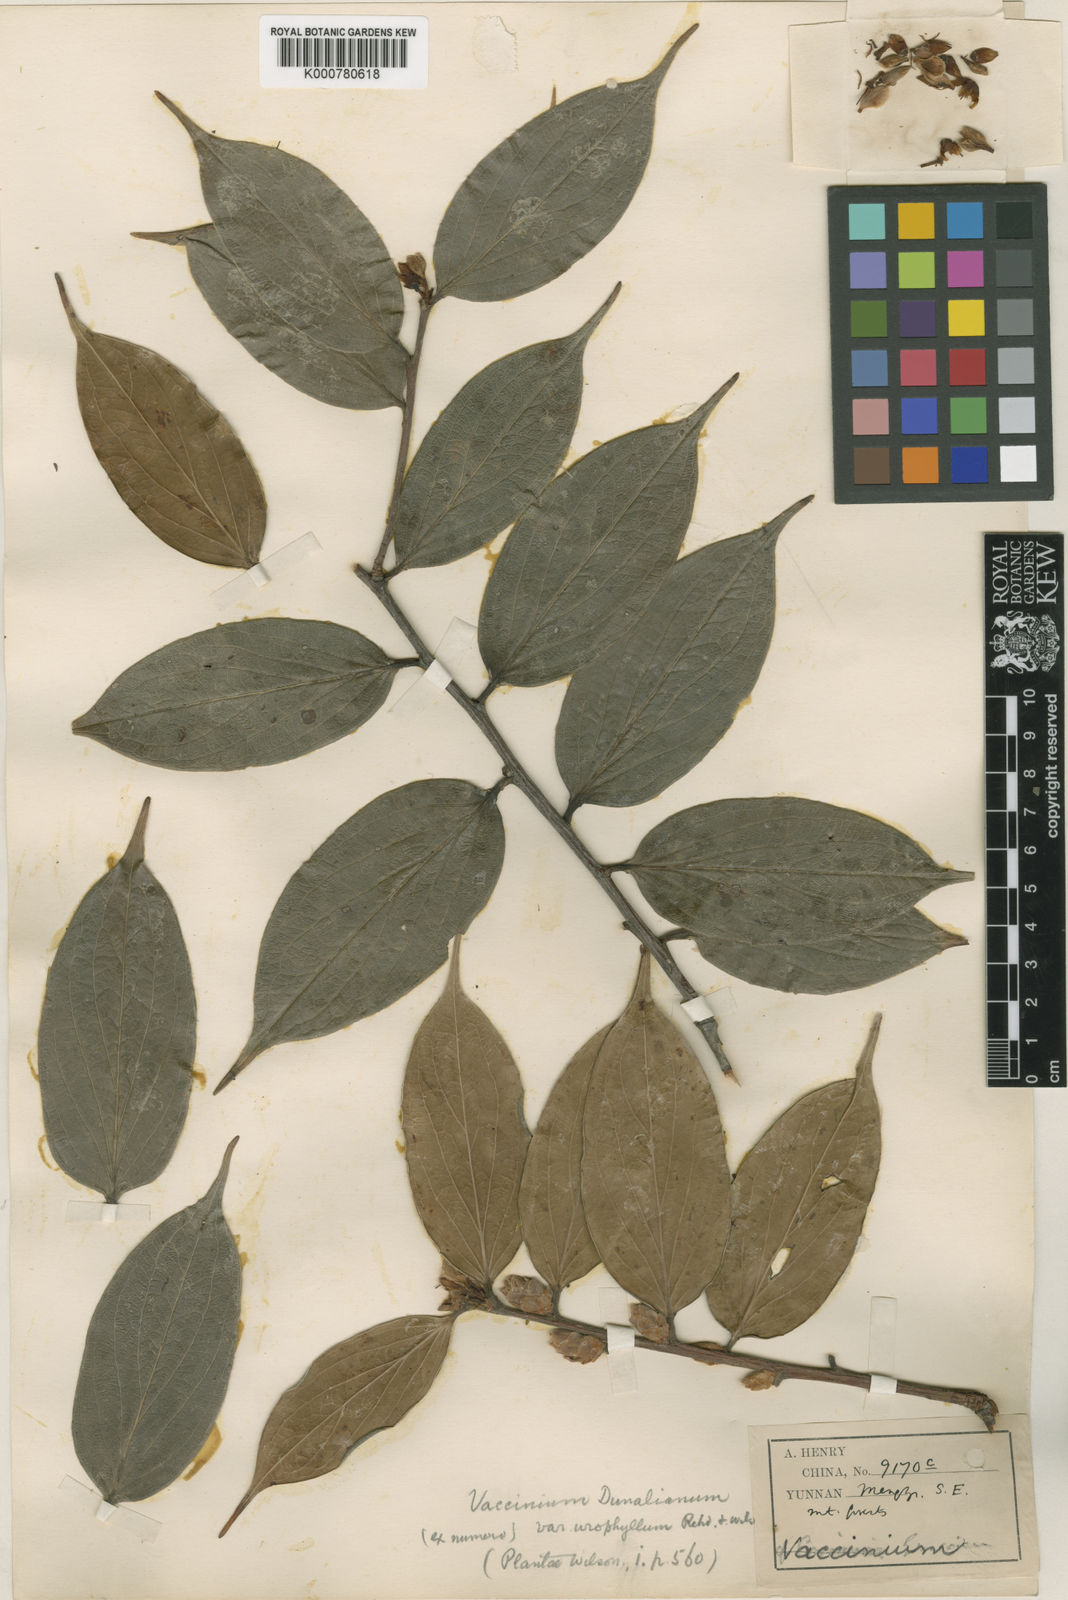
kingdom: Plantae
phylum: Tracheophyta
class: Magnoliopsida
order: Ericales
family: Ericaceae
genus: Vaccinium
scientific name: Vaccinium dunalianum
